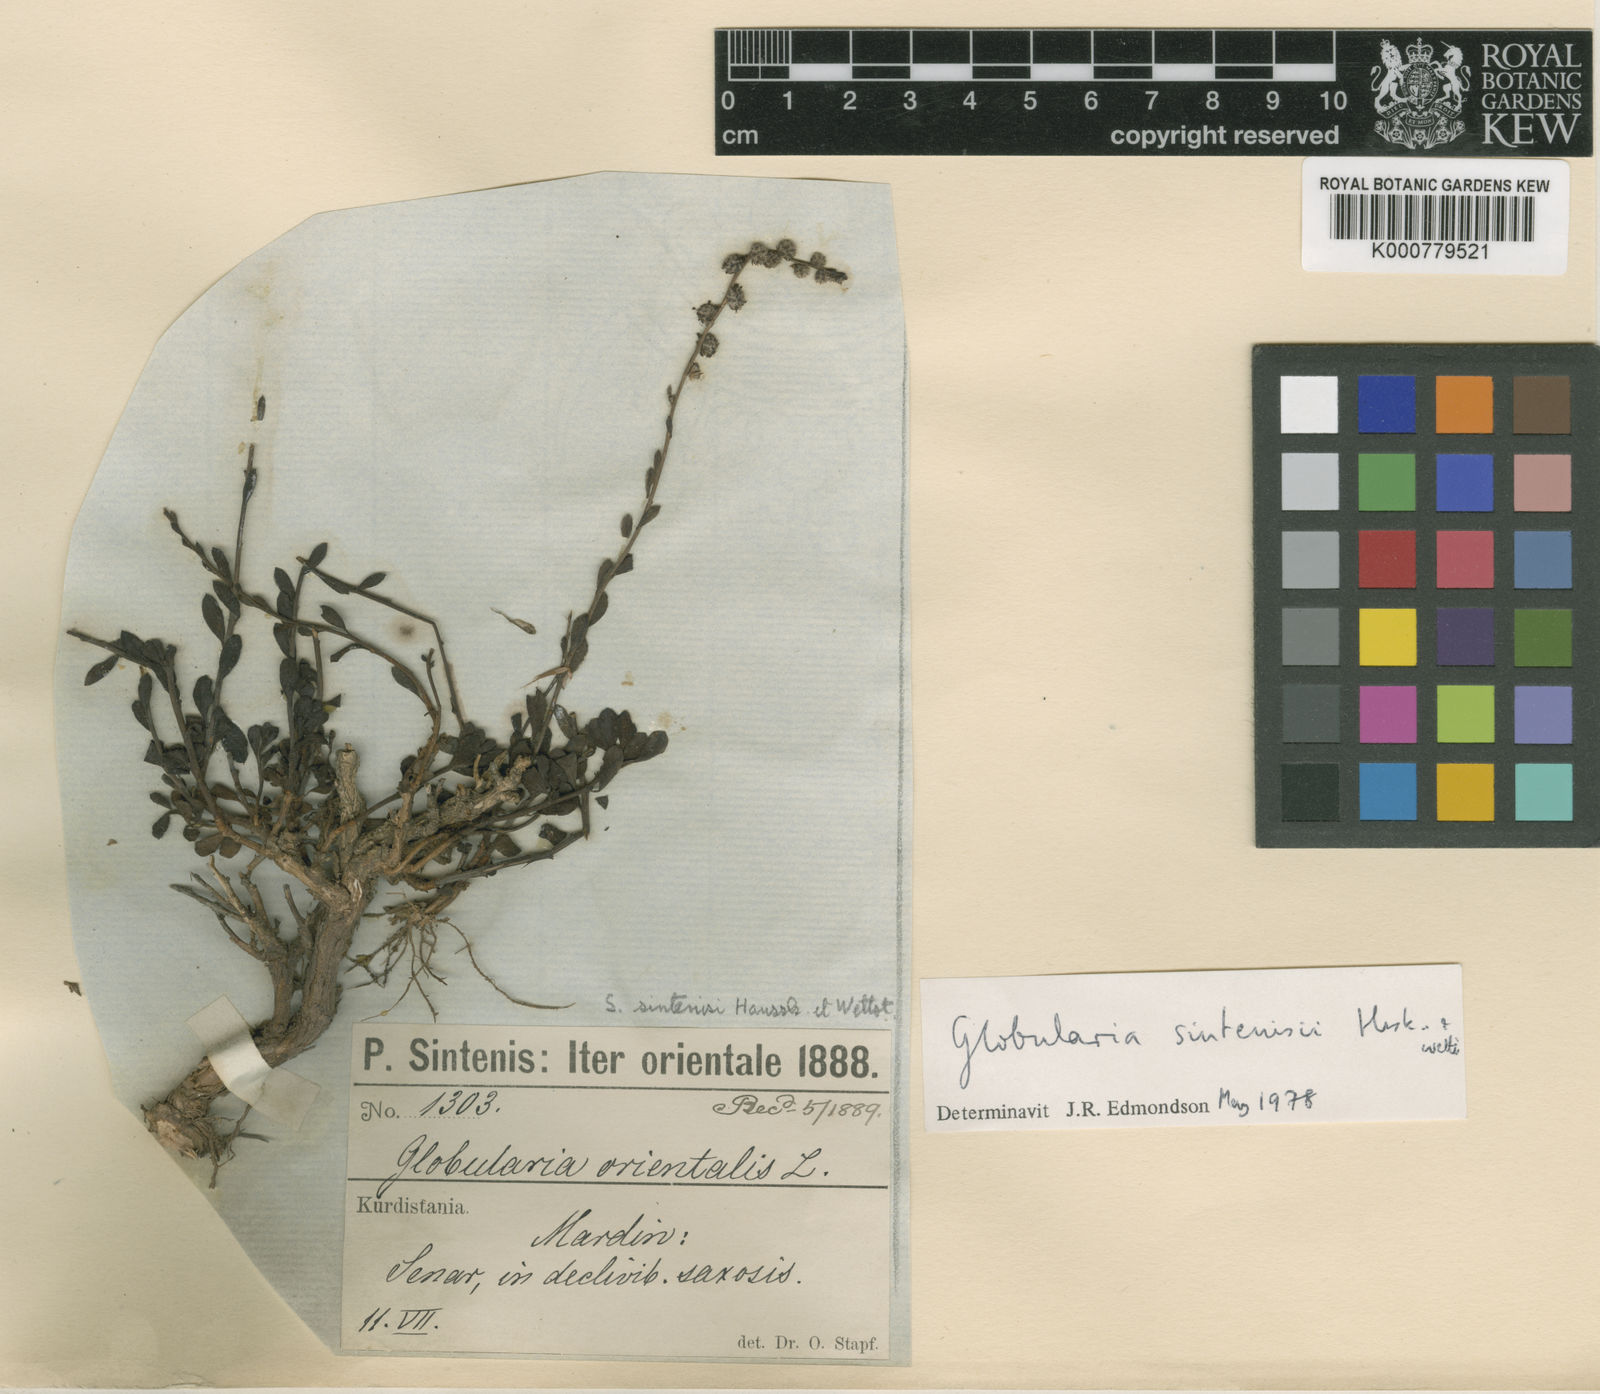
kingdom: Plantae
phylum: Tracheophyta
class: Magnoliopsida
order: Lamiales
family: Plantaginaceae
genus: Globularia
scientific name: Globularia sintenisii
